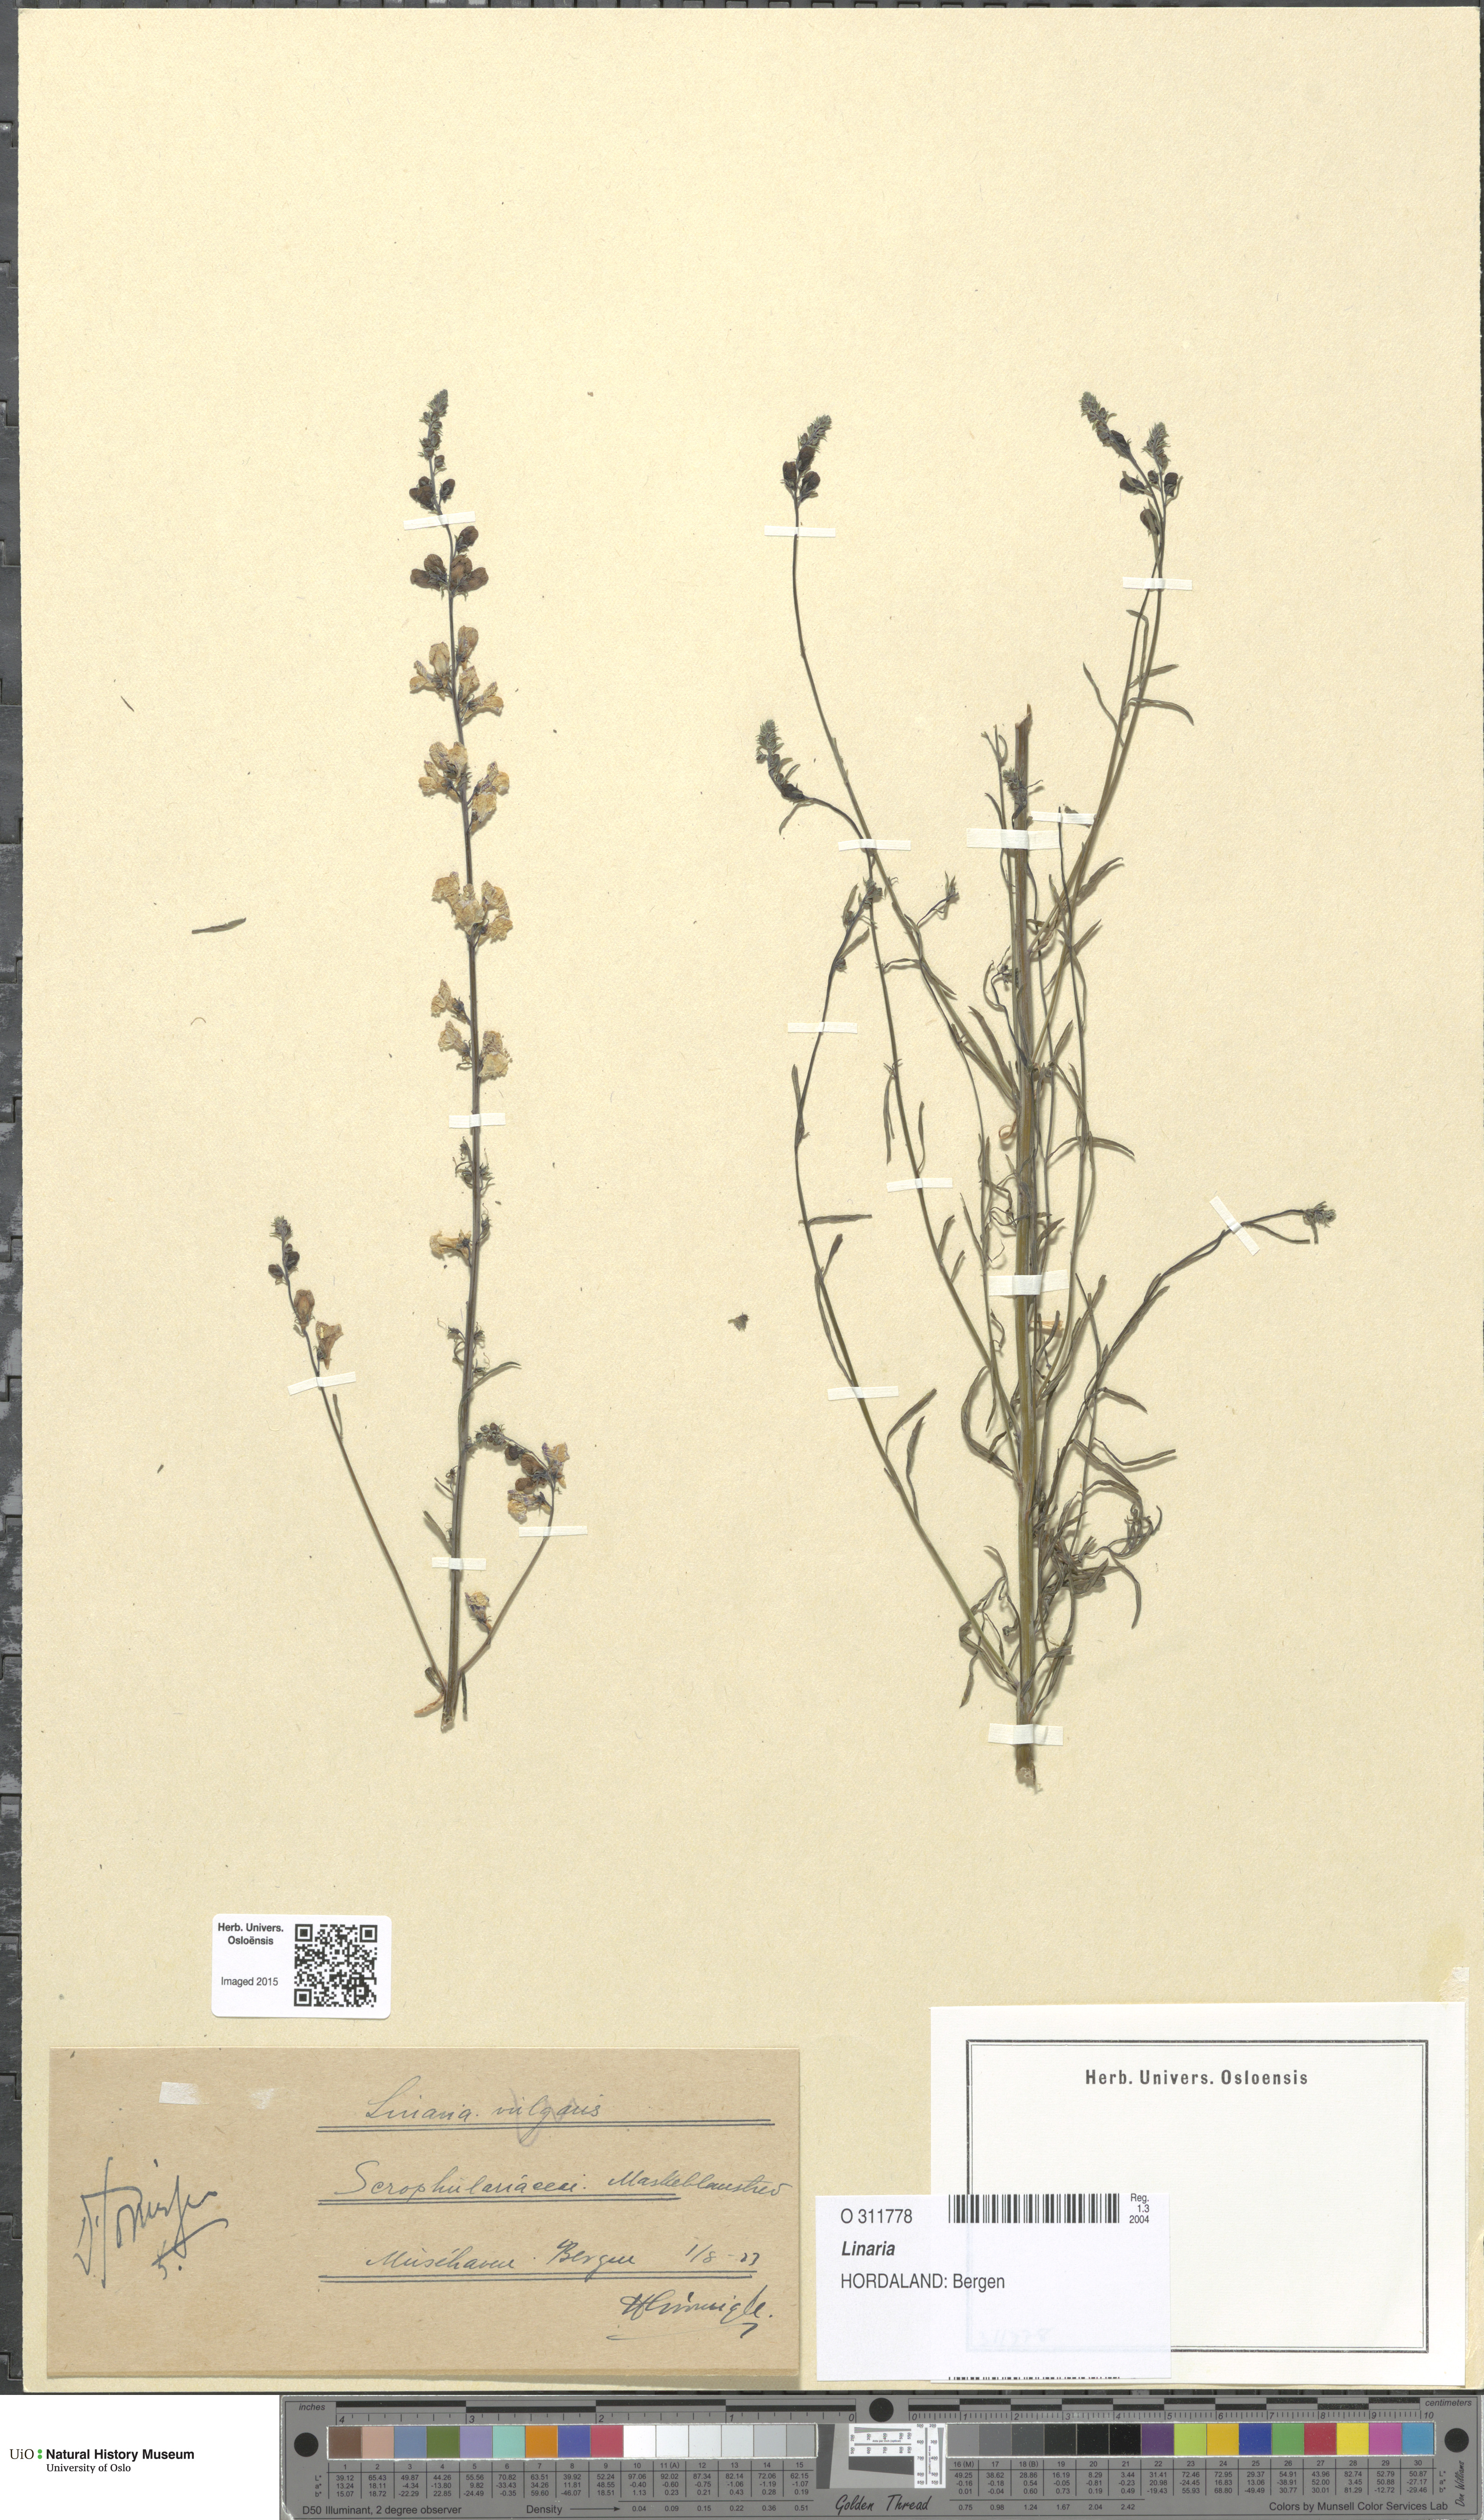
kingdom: Plantae
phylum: Tracheophyta
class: Magnoliopsida
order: Lamiales
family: Plantaginaceae
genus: Linaria
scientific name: Linaria
